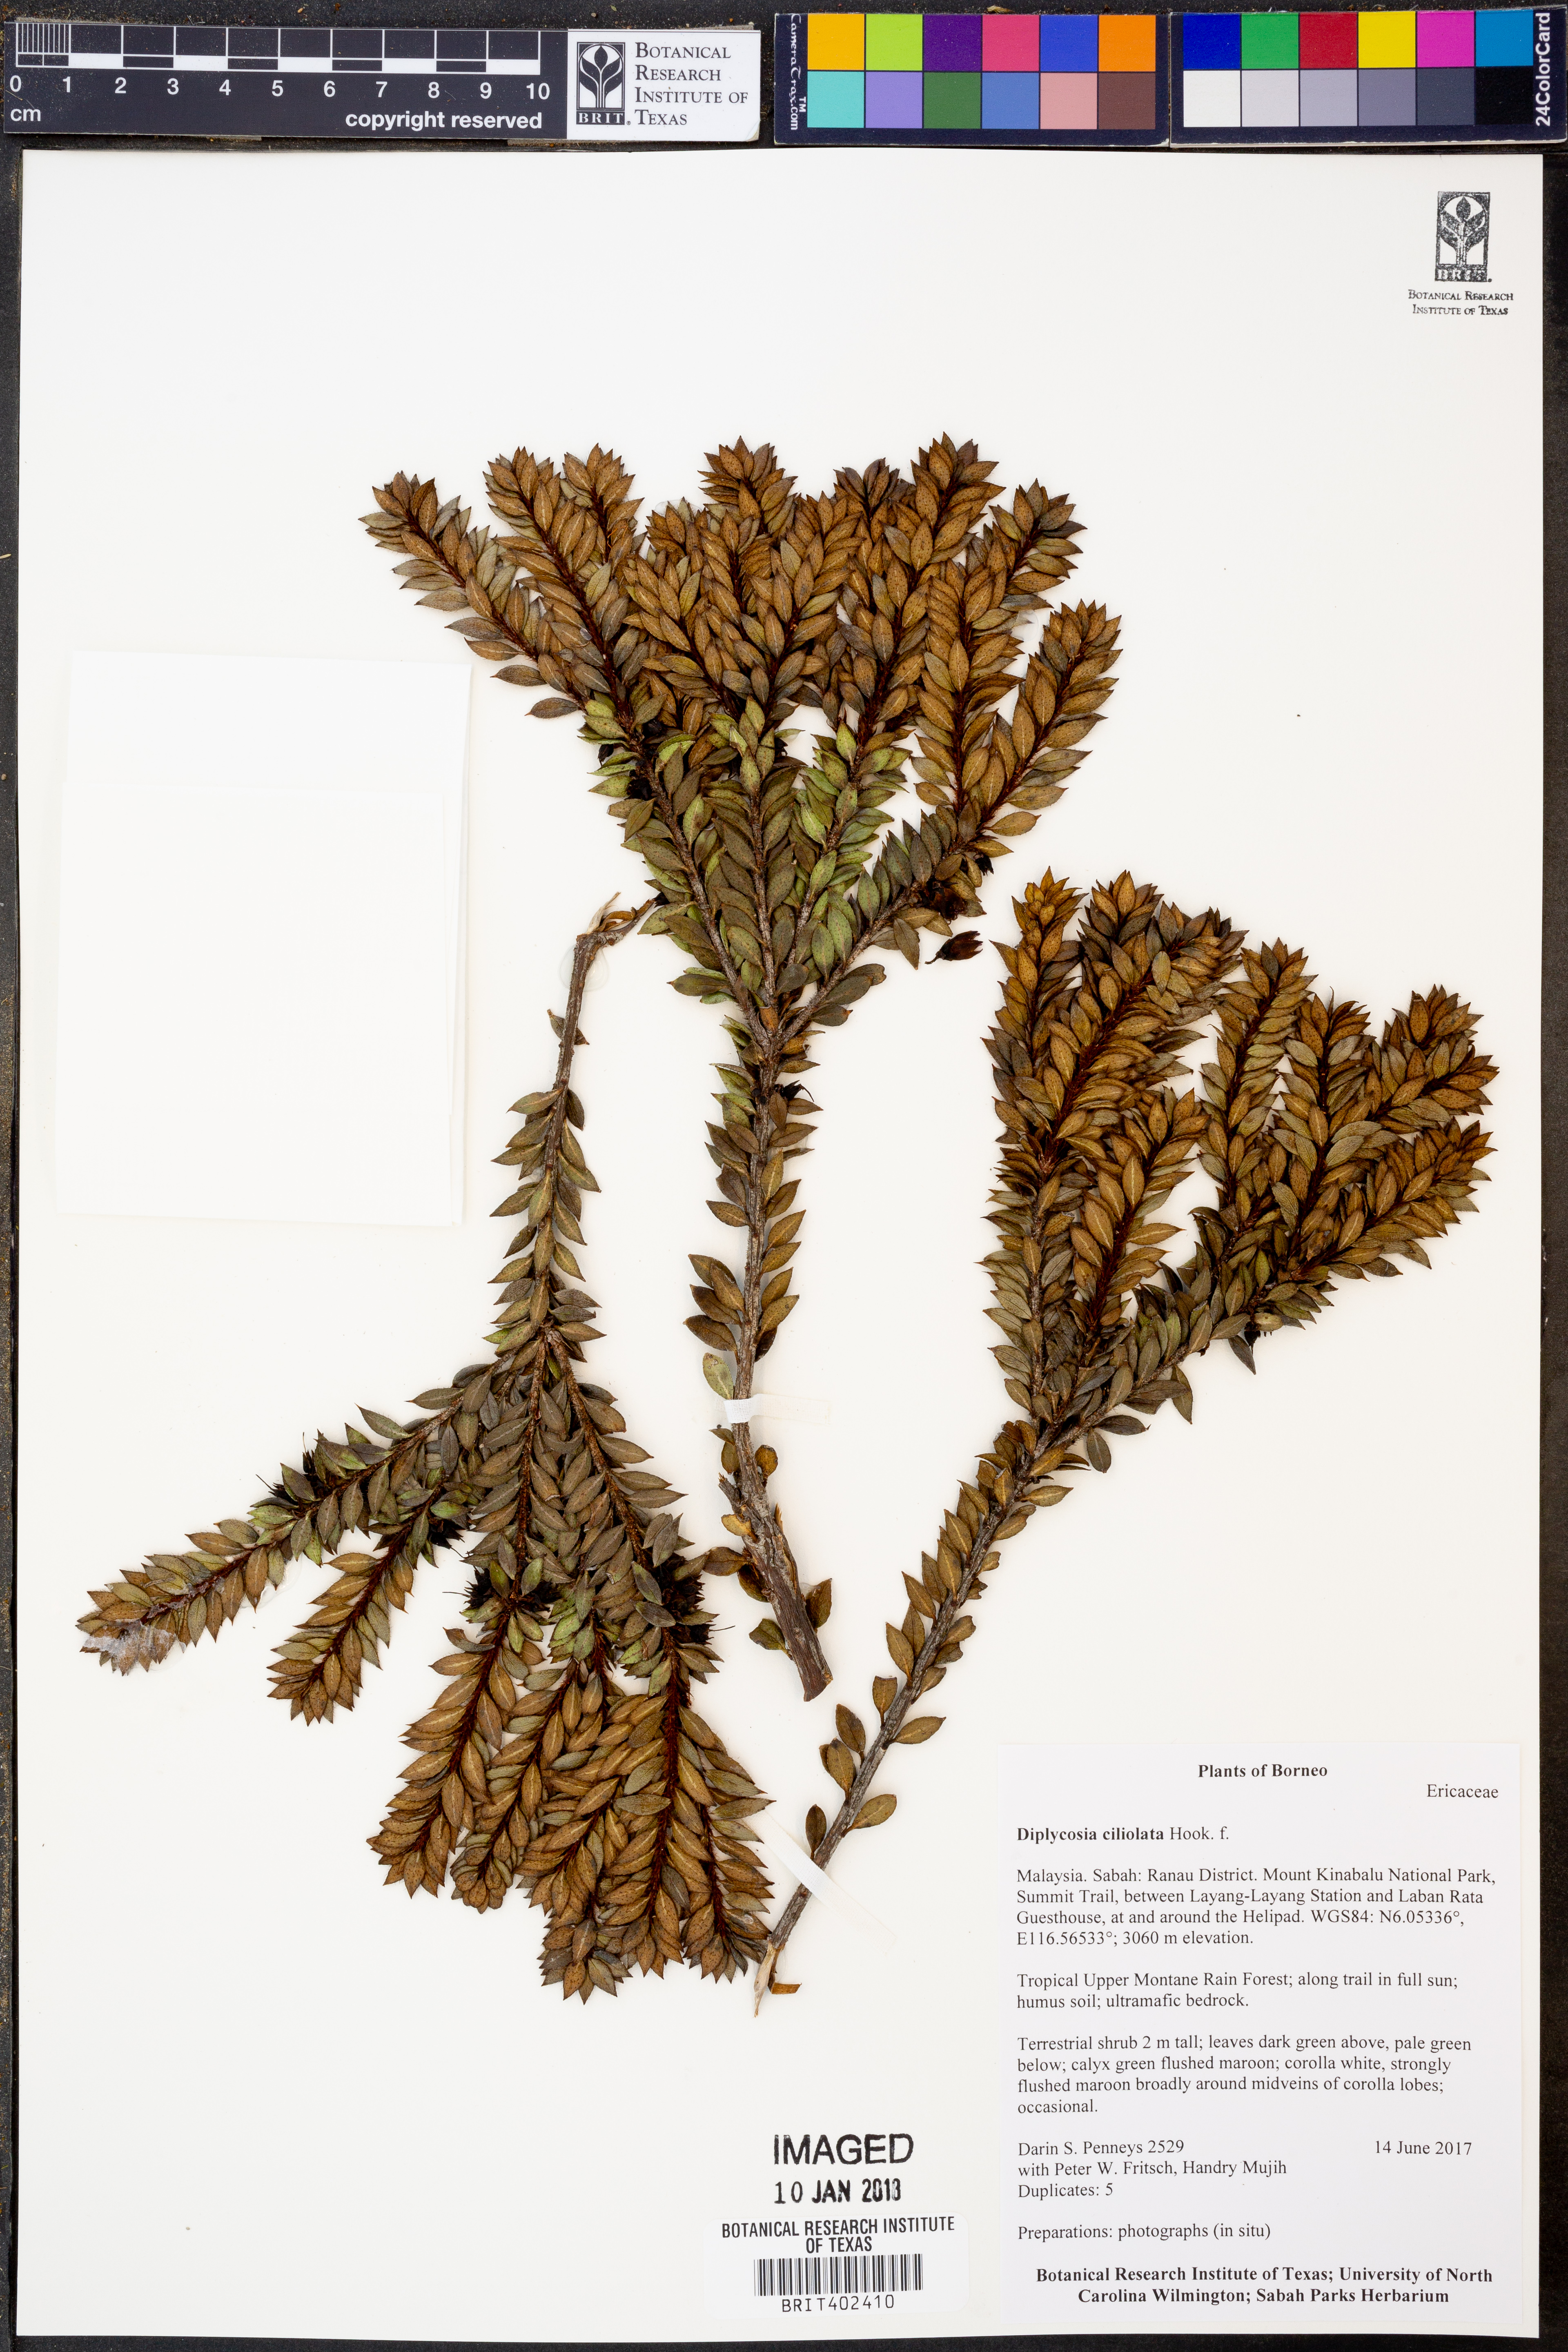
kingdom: Plantae
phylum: Tracheophyta
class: Magnoliopsida
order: Ericales
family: Ericaceae
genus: Gaultheria
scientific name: Gaultheria ciliolata
